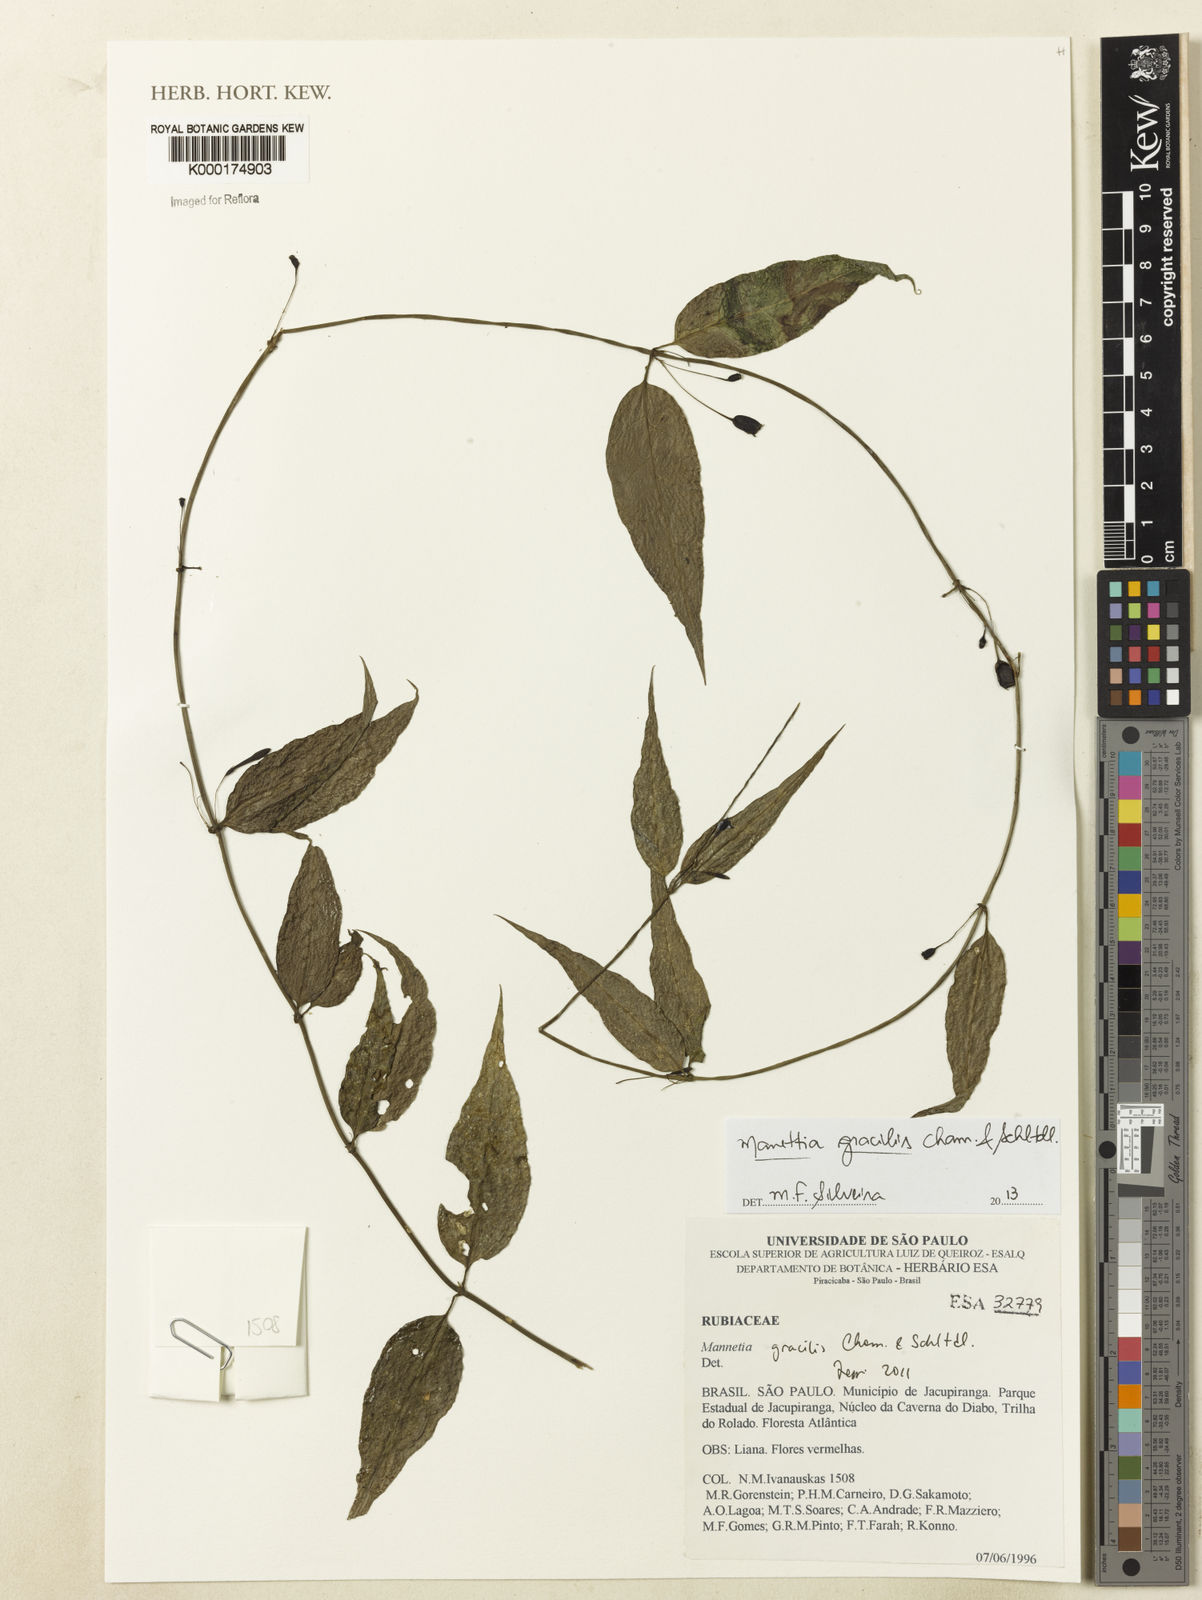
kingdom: Plantae
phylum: Tracheophyta
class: Magnoliopsida
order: Gentianales
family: Rubiaceae
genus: Manettia
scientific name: Manettia gracilis
